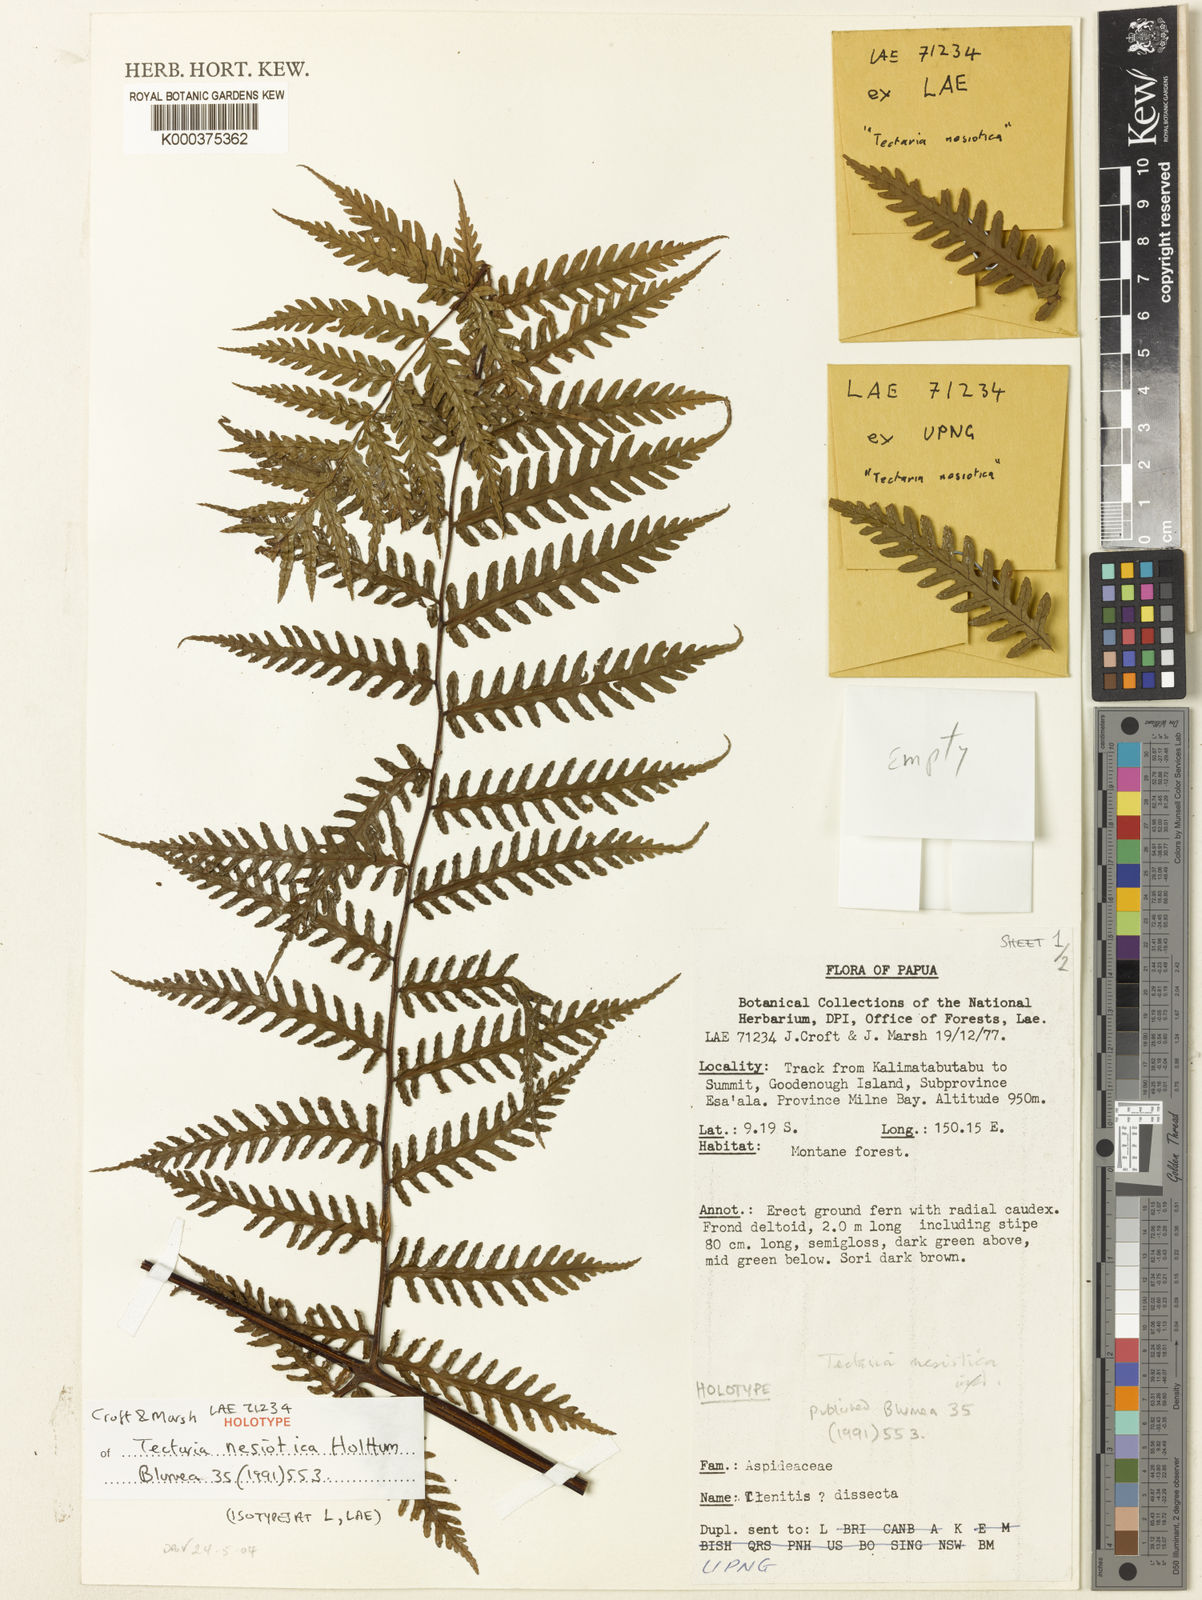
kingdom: Plantae
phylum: Tracheophyta
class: Polypodiopsida
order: Polypodiales
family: Dryopteridaceae
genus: Pleocnemia
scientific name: Pleocnemia nesiotica
